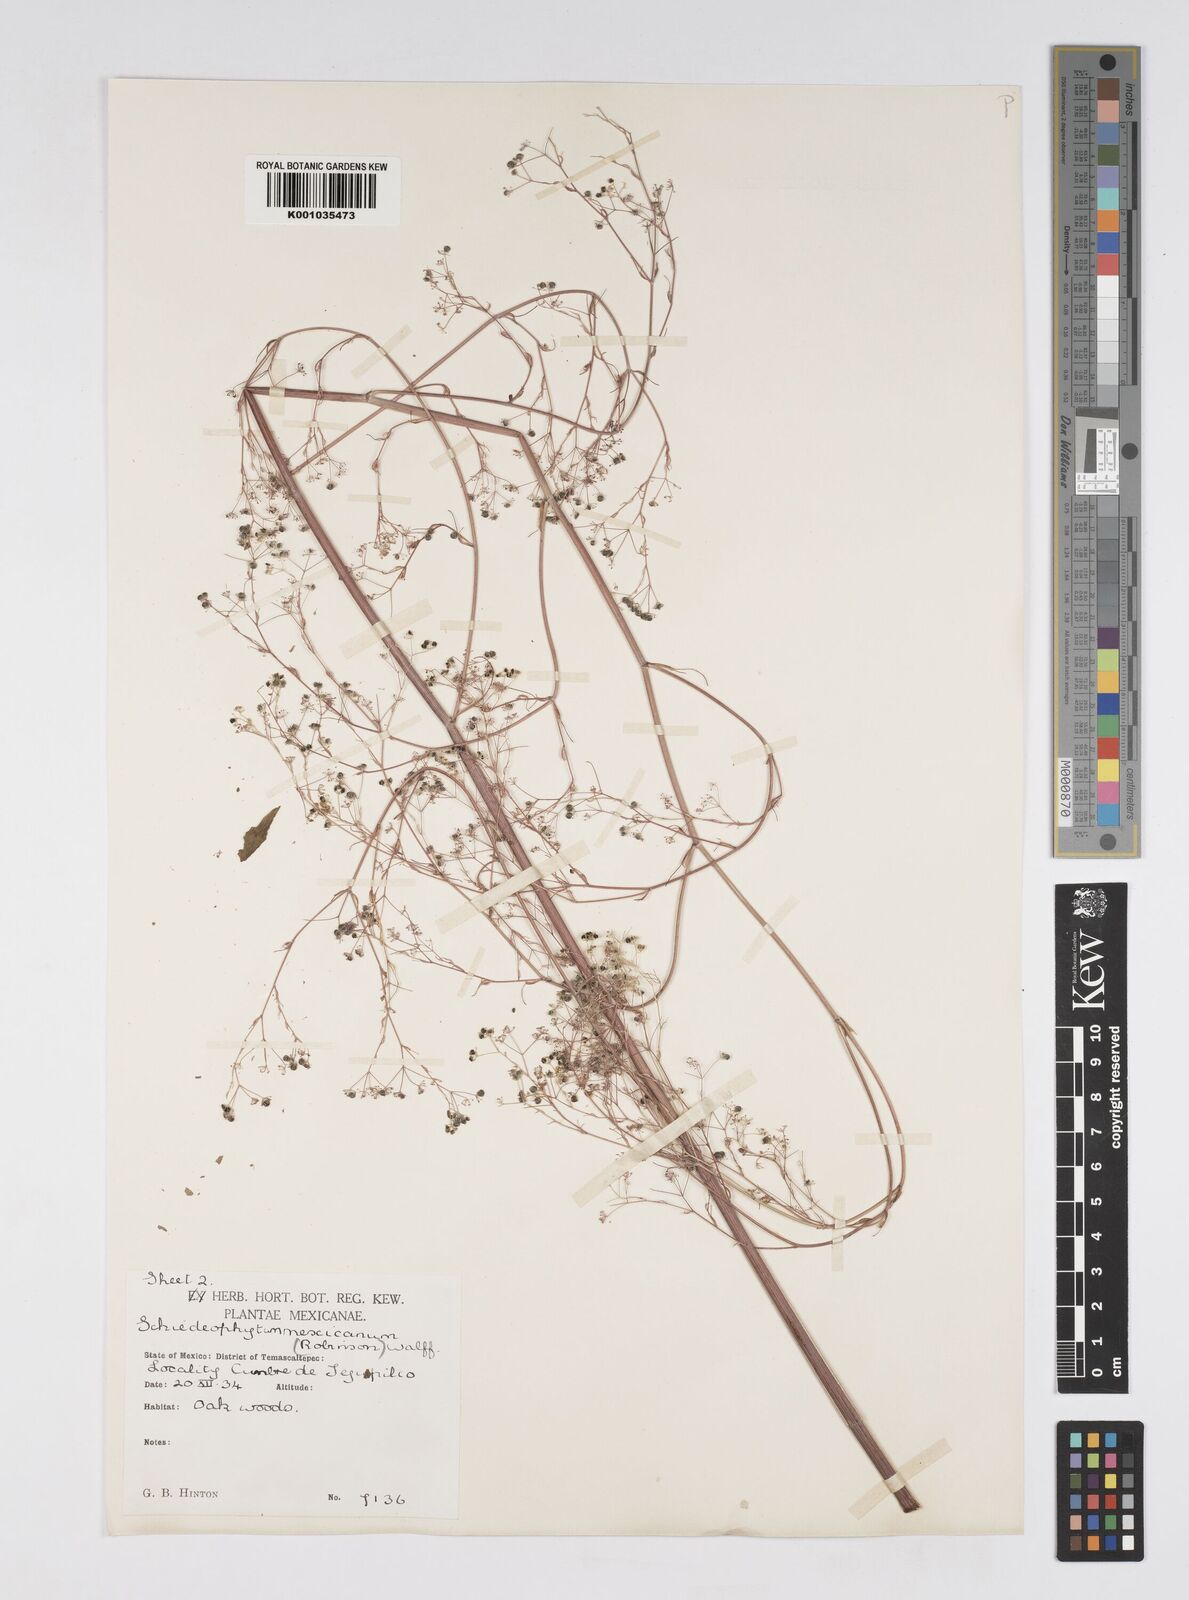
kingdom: Plantae
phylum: Tracheophyta
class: Magnoliopsida
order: Apiales
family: Apiaceae
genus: Donnellsmithia
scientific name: Donnellsmithia mexicana
